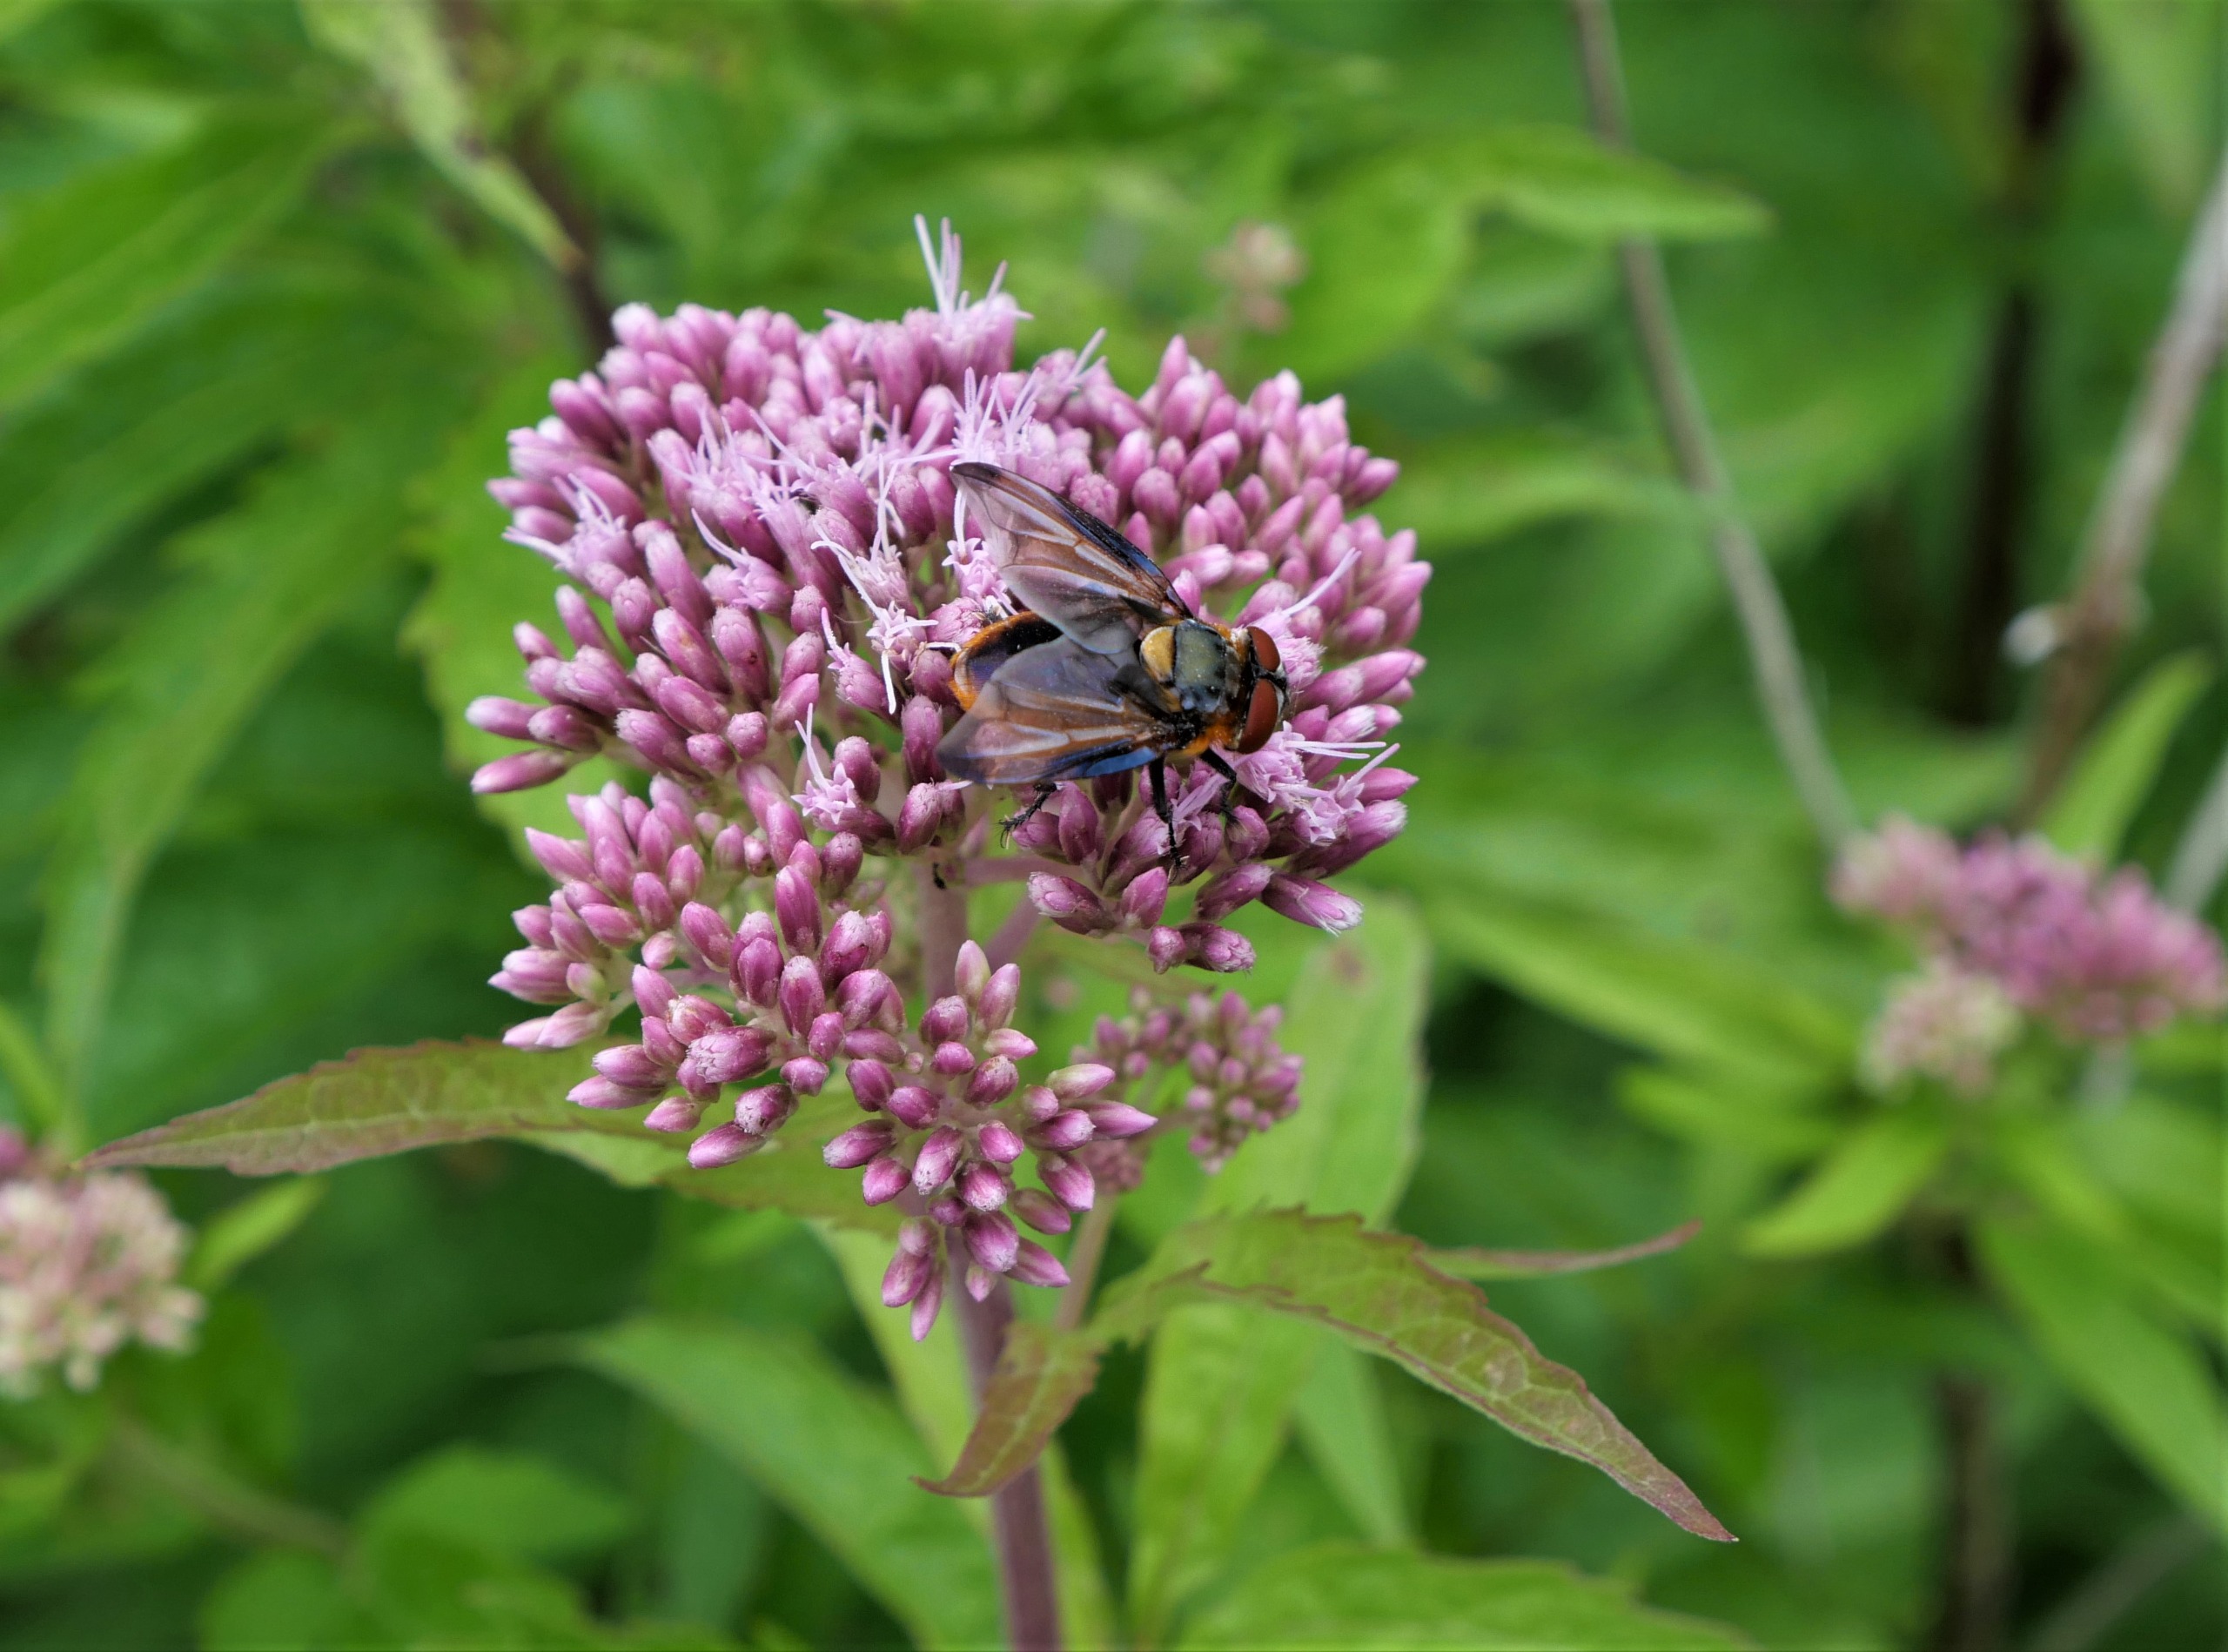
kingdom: Animalia
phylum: Arthropoda
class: Insecta
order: Diptera
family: Tachinidae
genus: Phasia
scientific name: Phasia hemiptera
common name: Blåvinget pragtsnylteflue
